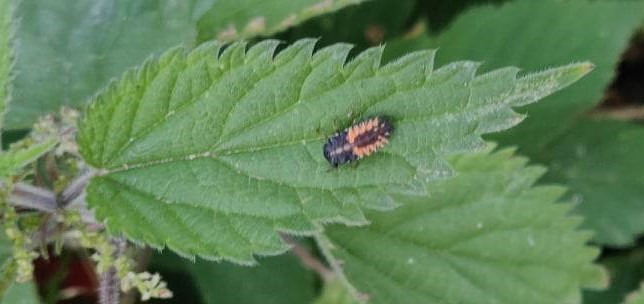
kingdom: Animalia
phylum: Arthropoda
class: Insecta
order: Coleoptera
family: Coccinellidae
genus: Harmonia
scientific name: Harmonia axyridis
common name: Harlekinmariehøne
